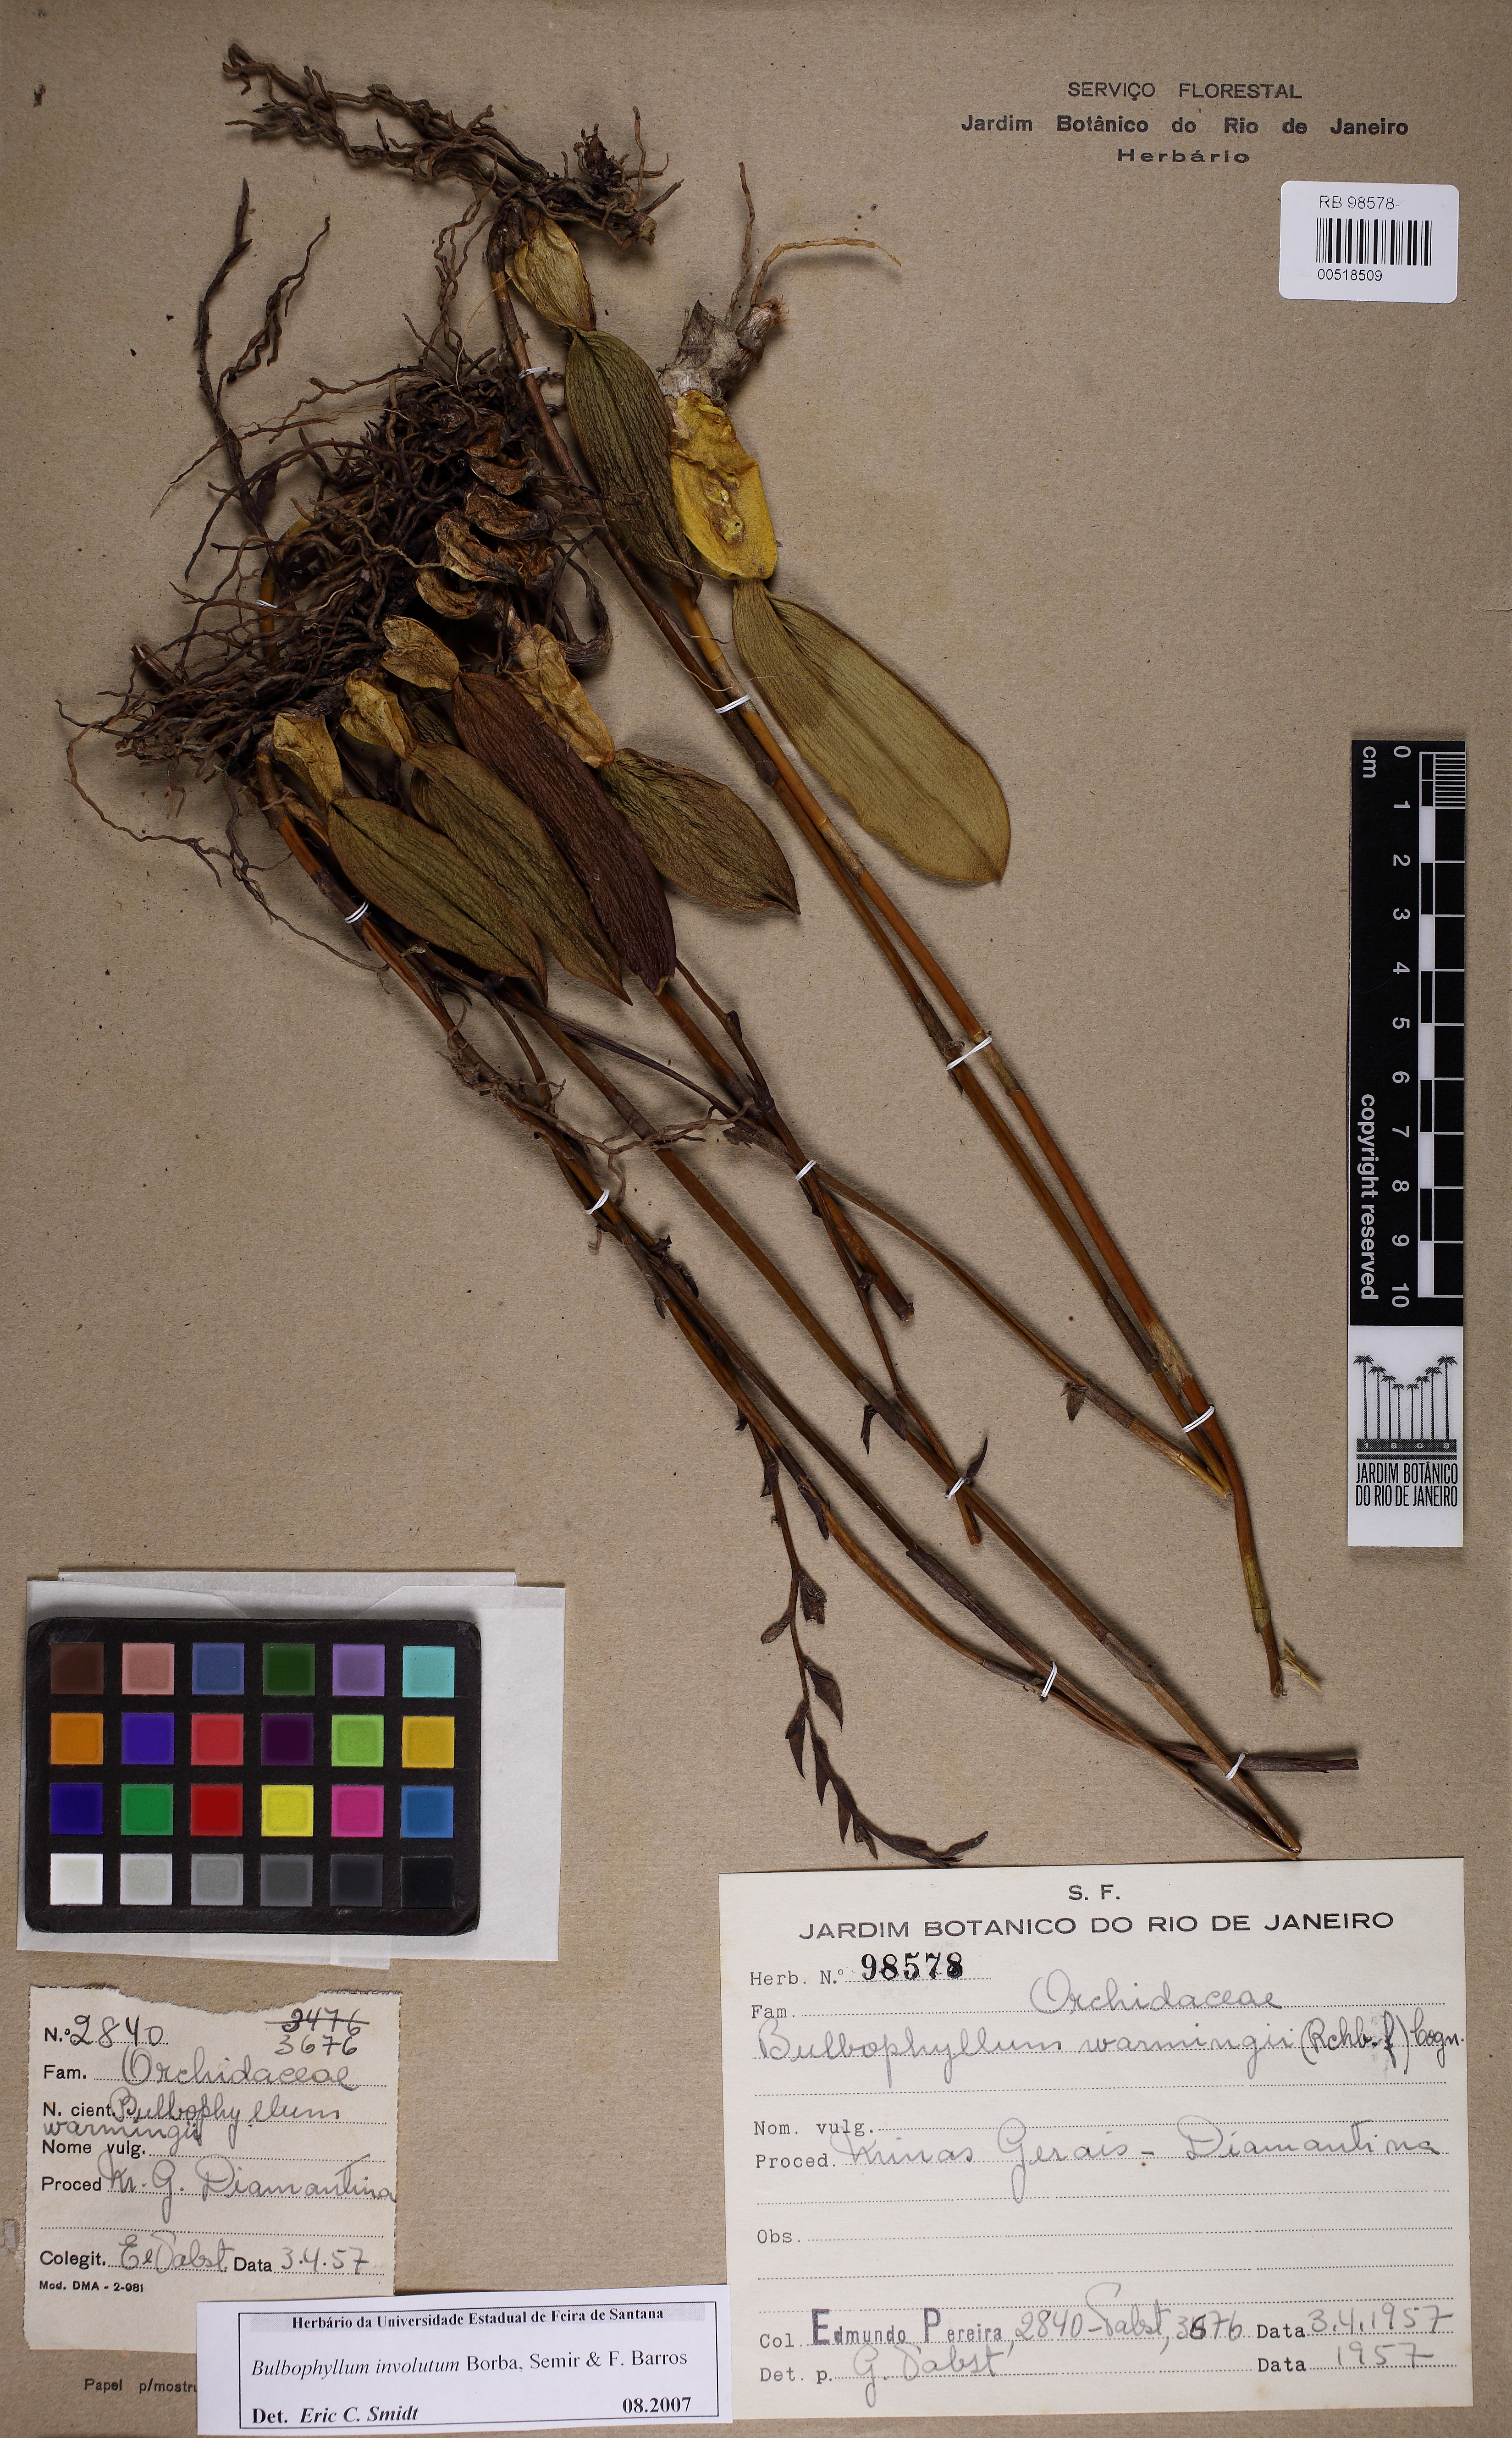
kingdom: Plantae
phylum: Tracheophyta
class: Liliopsida
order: Asparagales
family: Orchidaceae
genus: Bulbophyllum
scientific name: Bulbophyllum involutum
